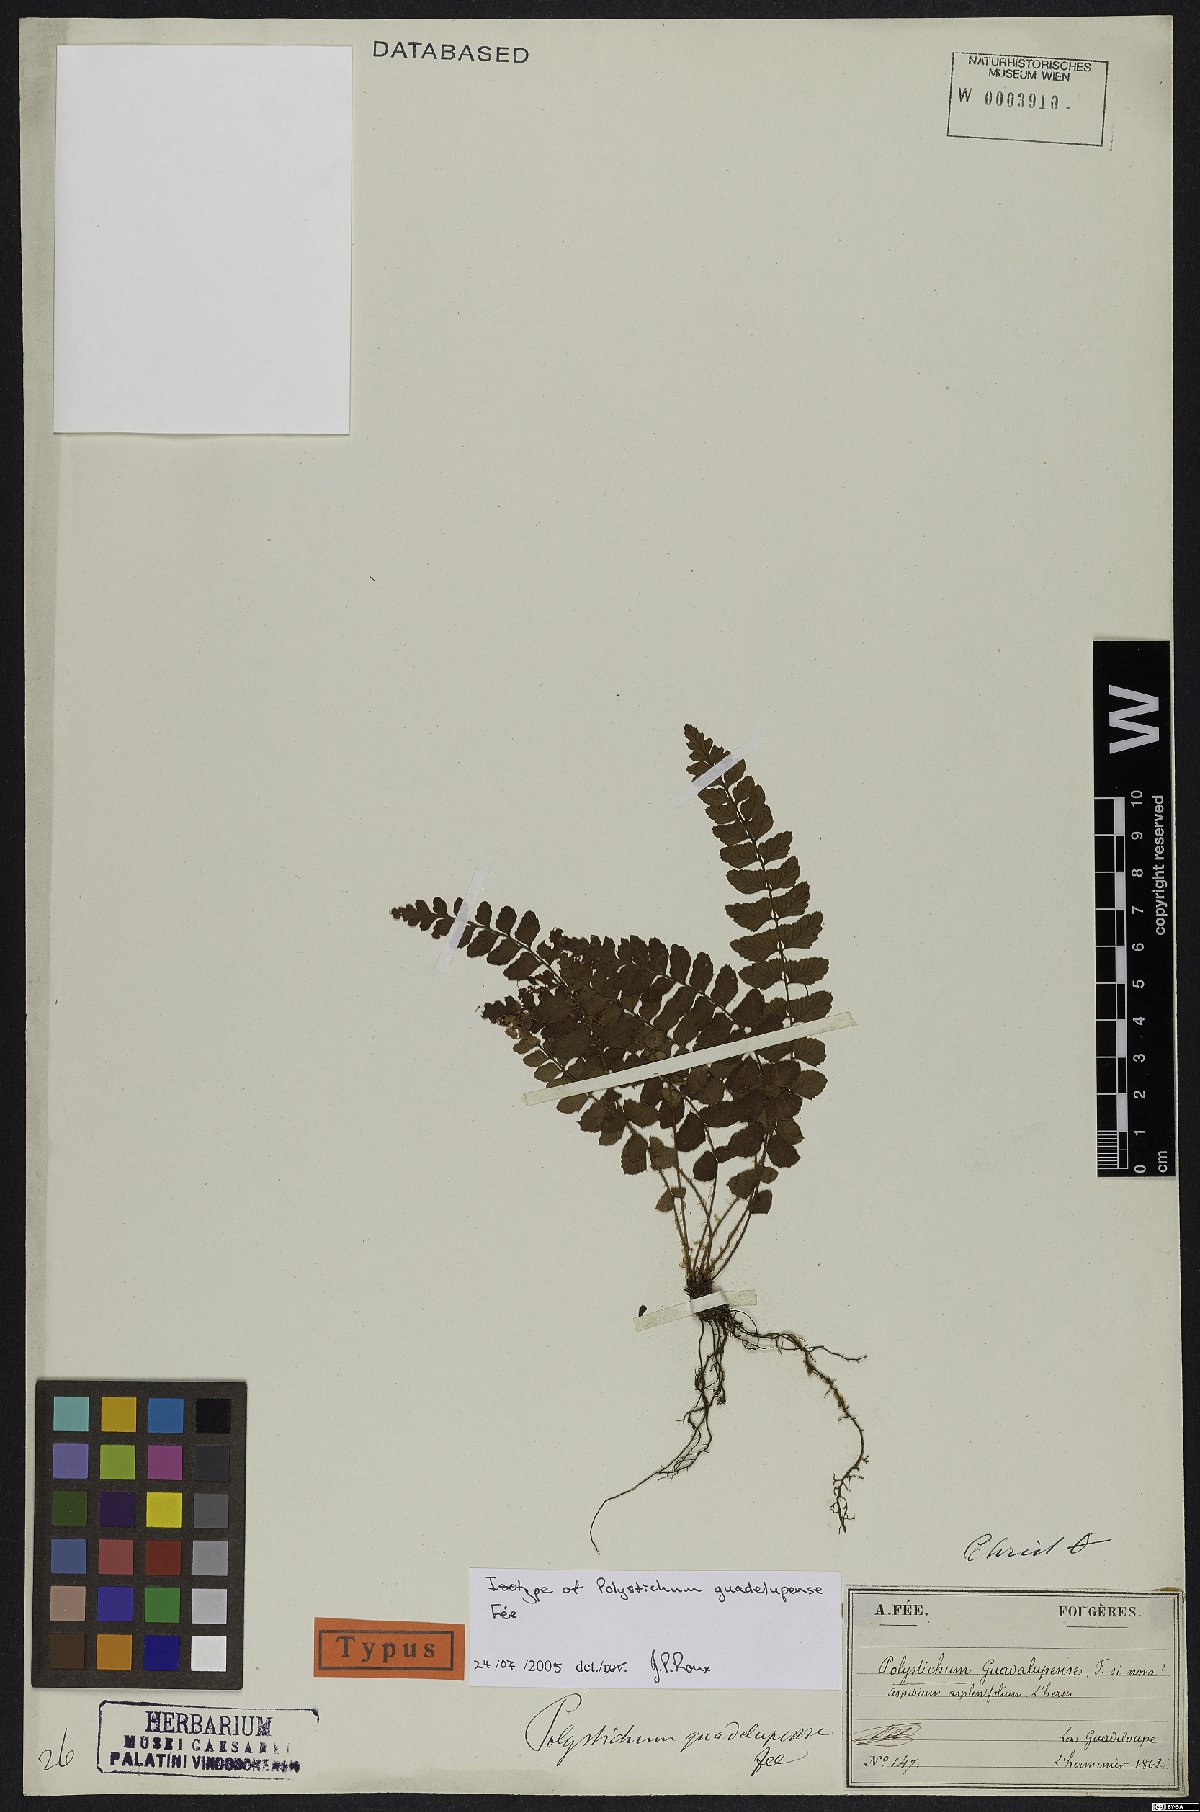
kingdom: Plantae
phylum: Tracheophyta
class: Polypodiopsida
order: Polypodiales
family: Dryopteridaceae
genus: Polystichum
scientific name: Polystichum guadalupense
